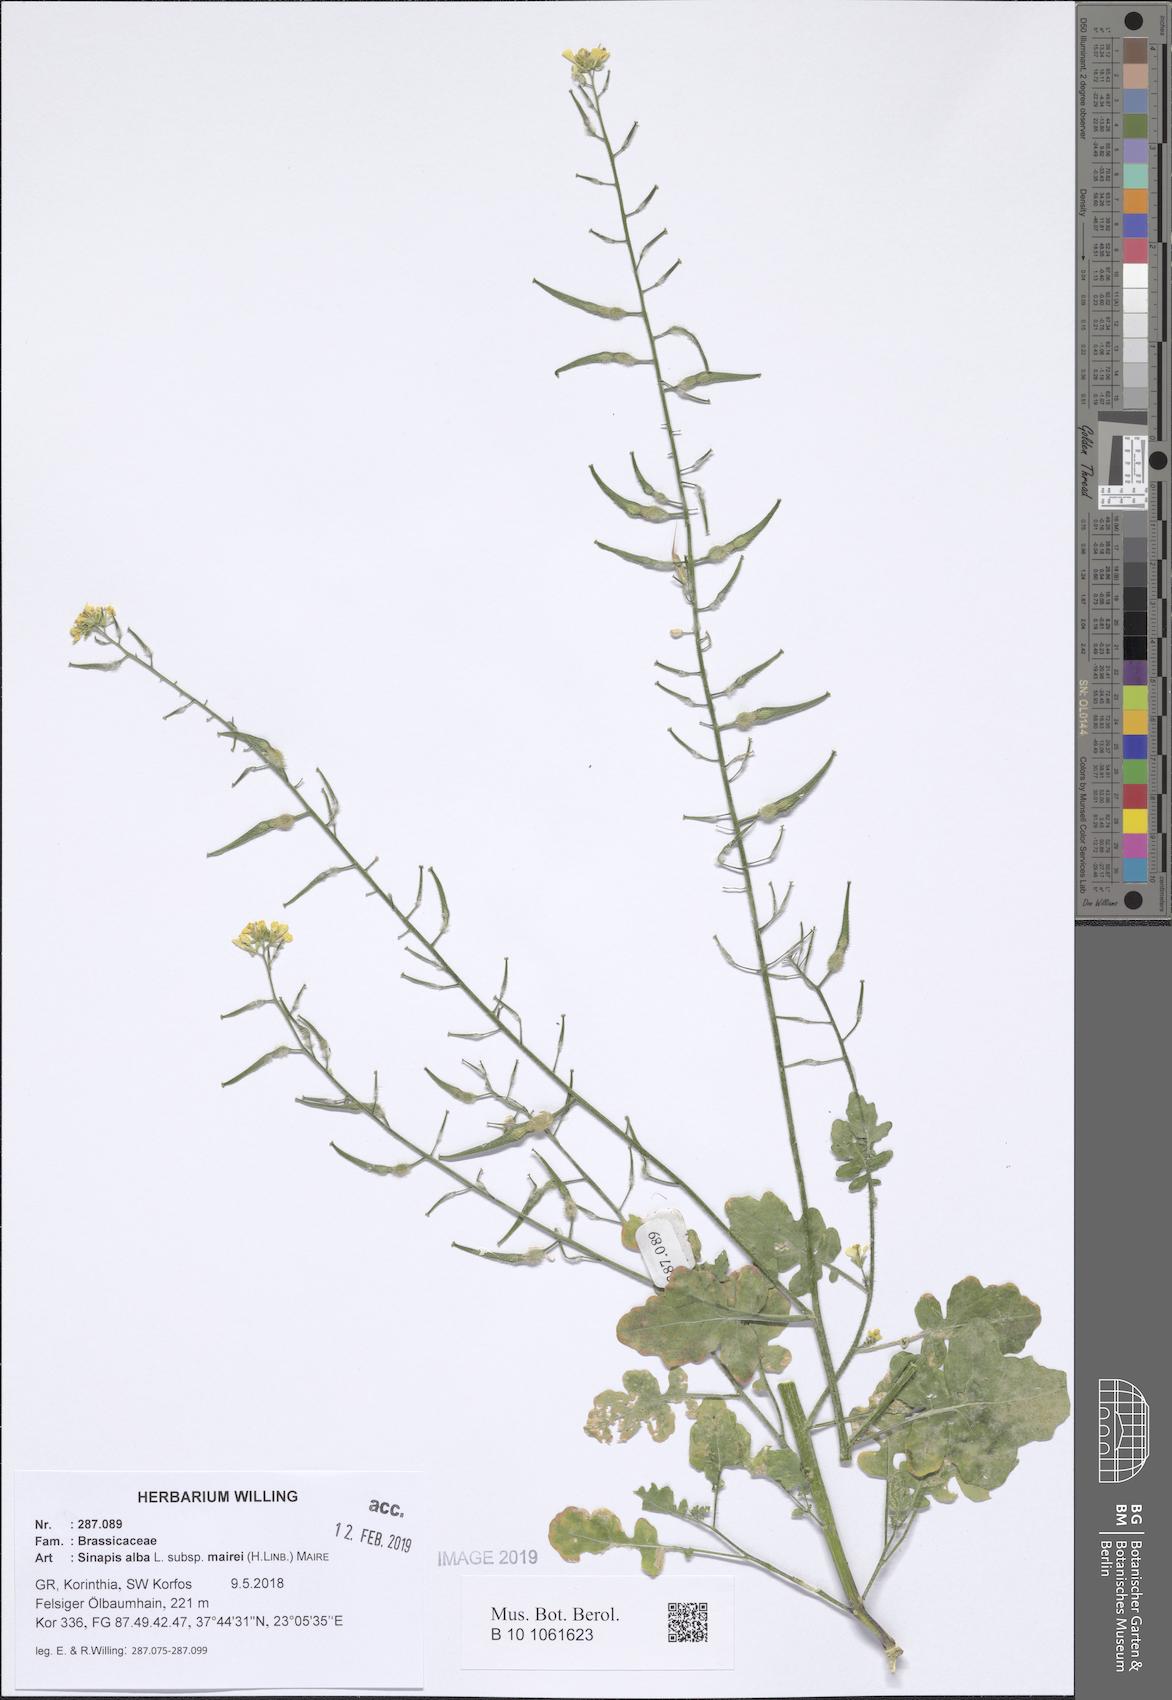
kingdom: Plantae
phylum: Tracheophyta
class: Magnoliopsida
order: Brassicales
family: Brassicaceae
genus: Sinapis
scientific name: Sinapis alba
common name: White mustard
